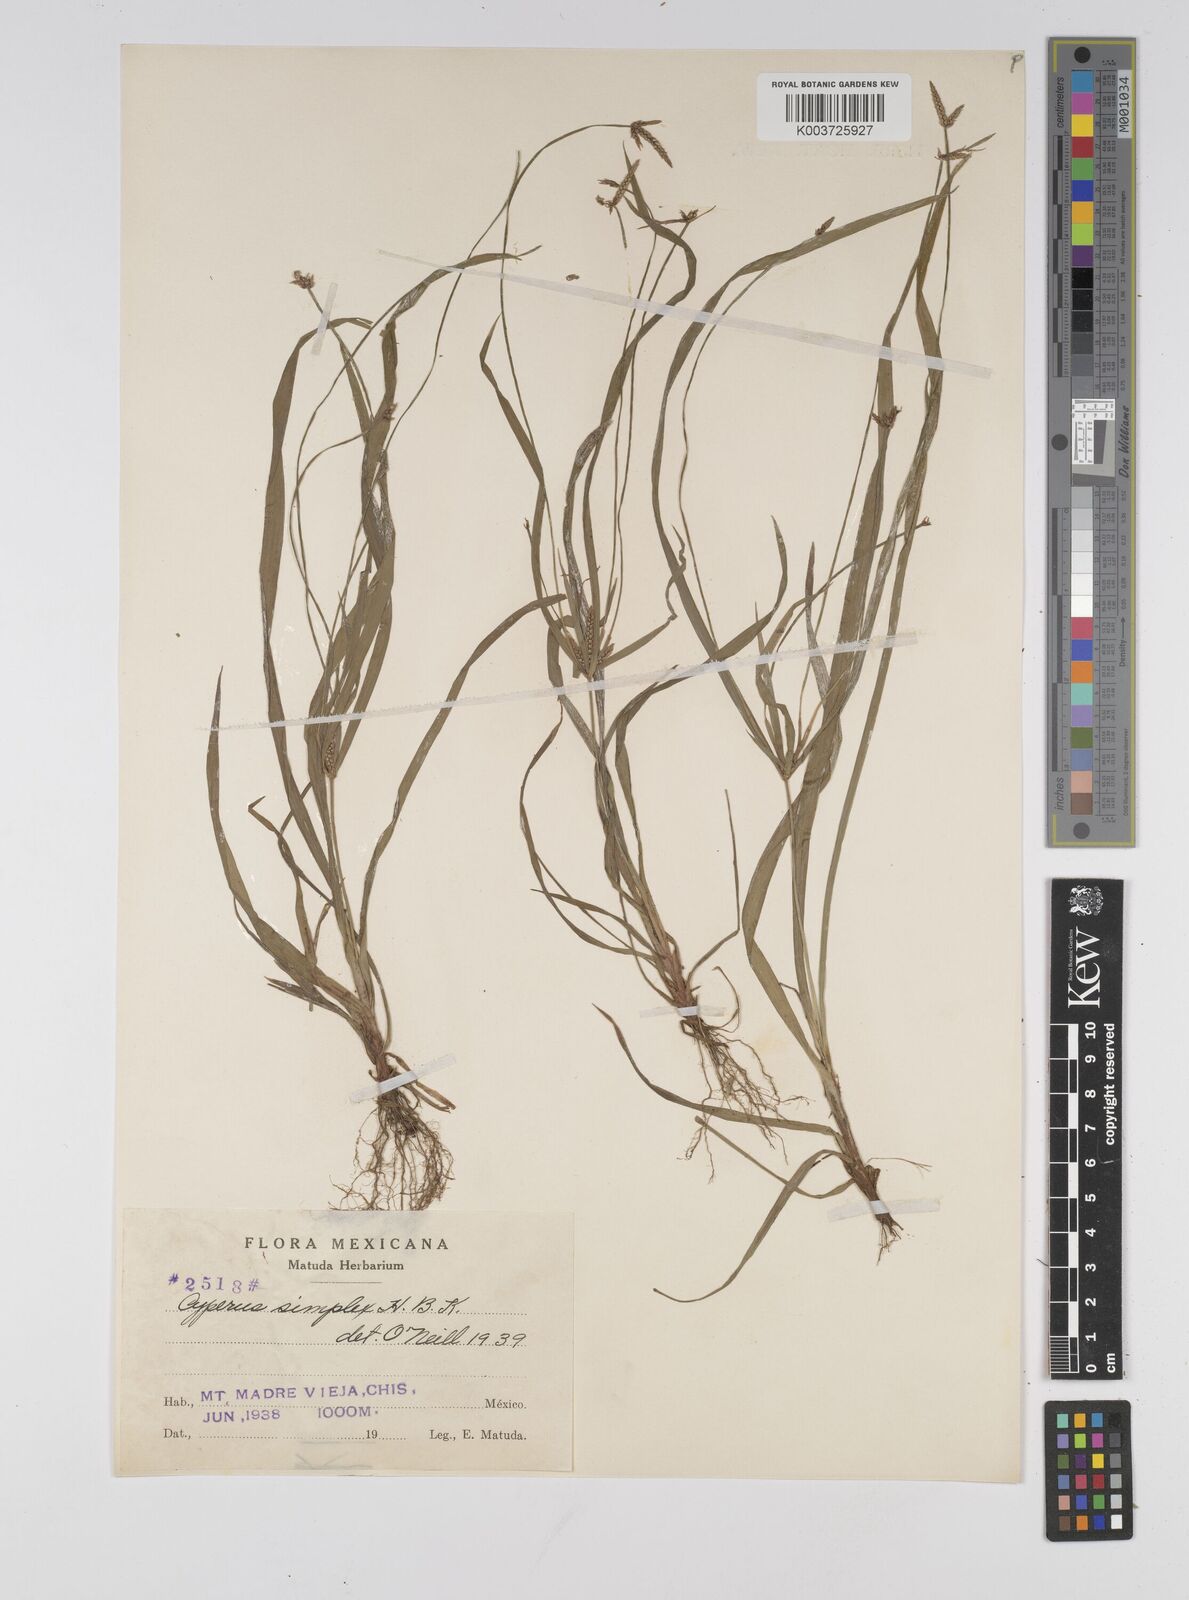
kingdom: Plantae
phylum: Tracheophyta
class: Liliopsida
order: Poales
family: Cyperaceae
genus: Cyperus
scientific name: Cyperus simplex
